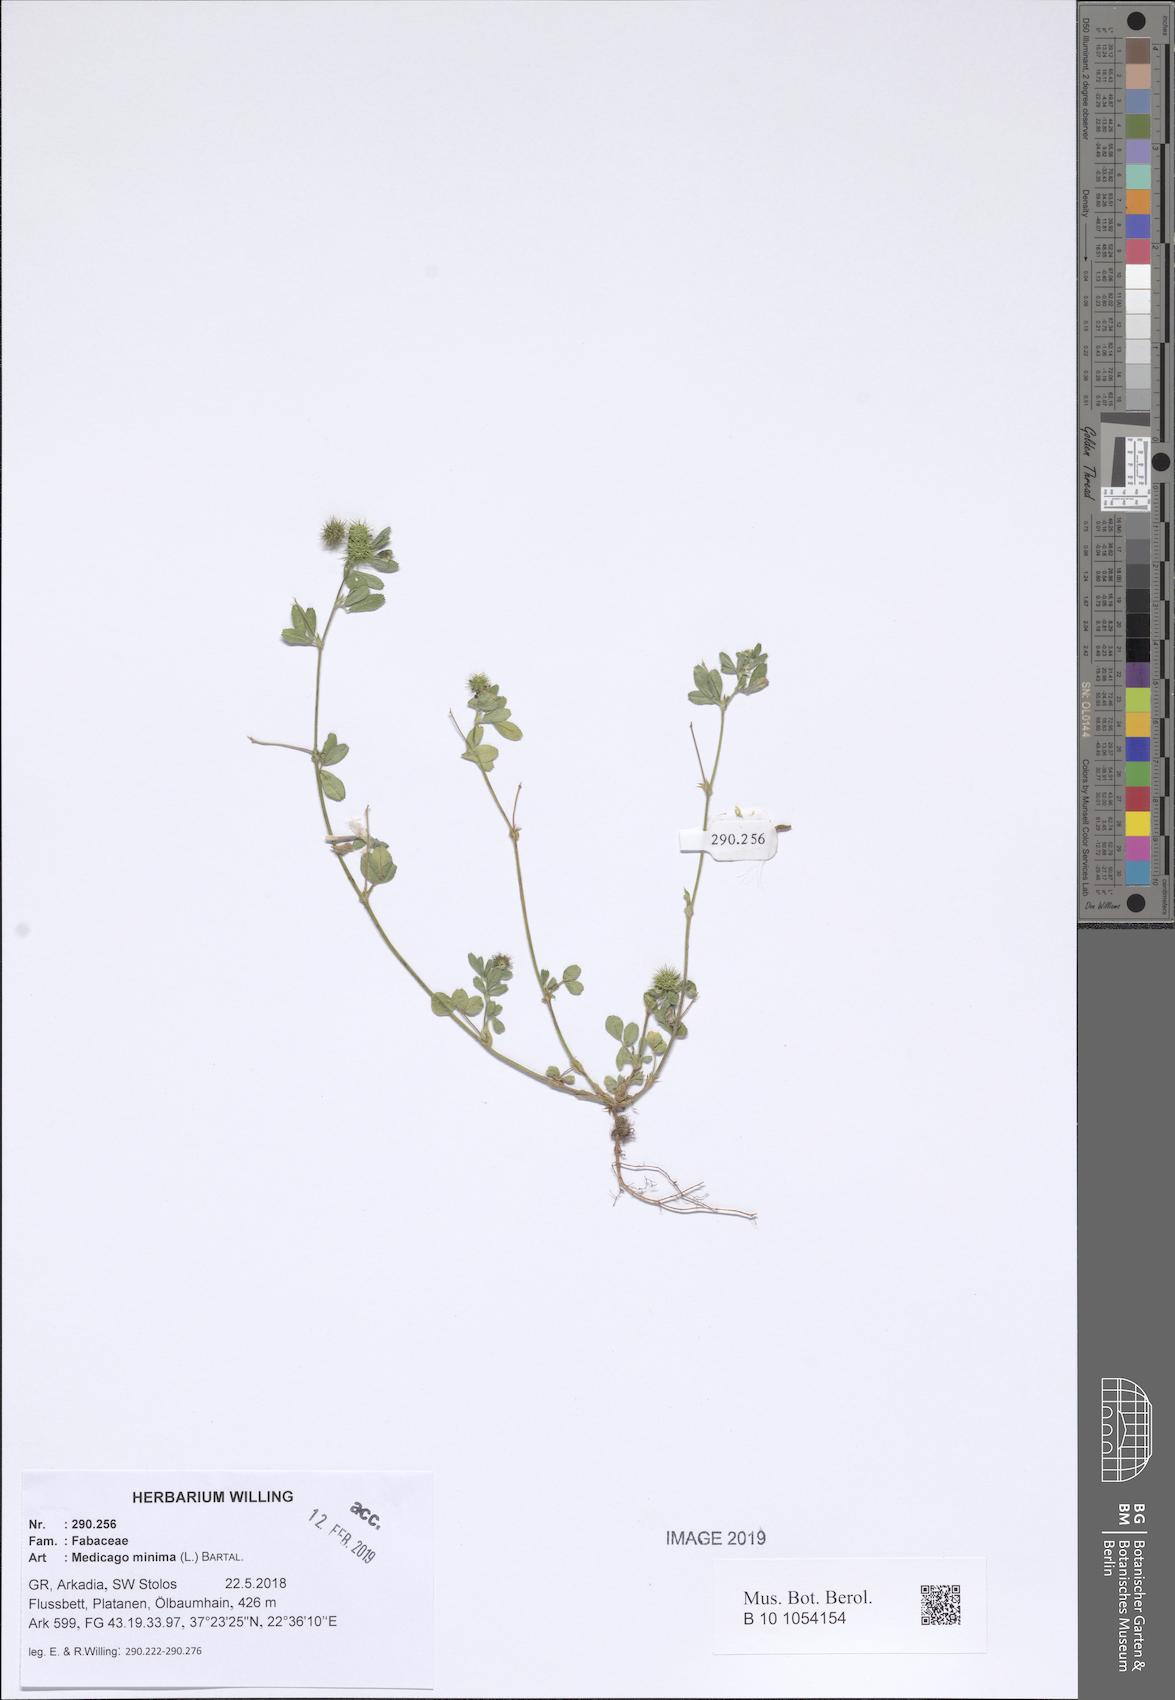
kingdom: Plantae
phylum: Tracheophyta
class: Magnoliopsida
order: Fabales
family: Fabaceae
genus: Medicago
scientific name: Medicago minima
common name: Little bur-clover
